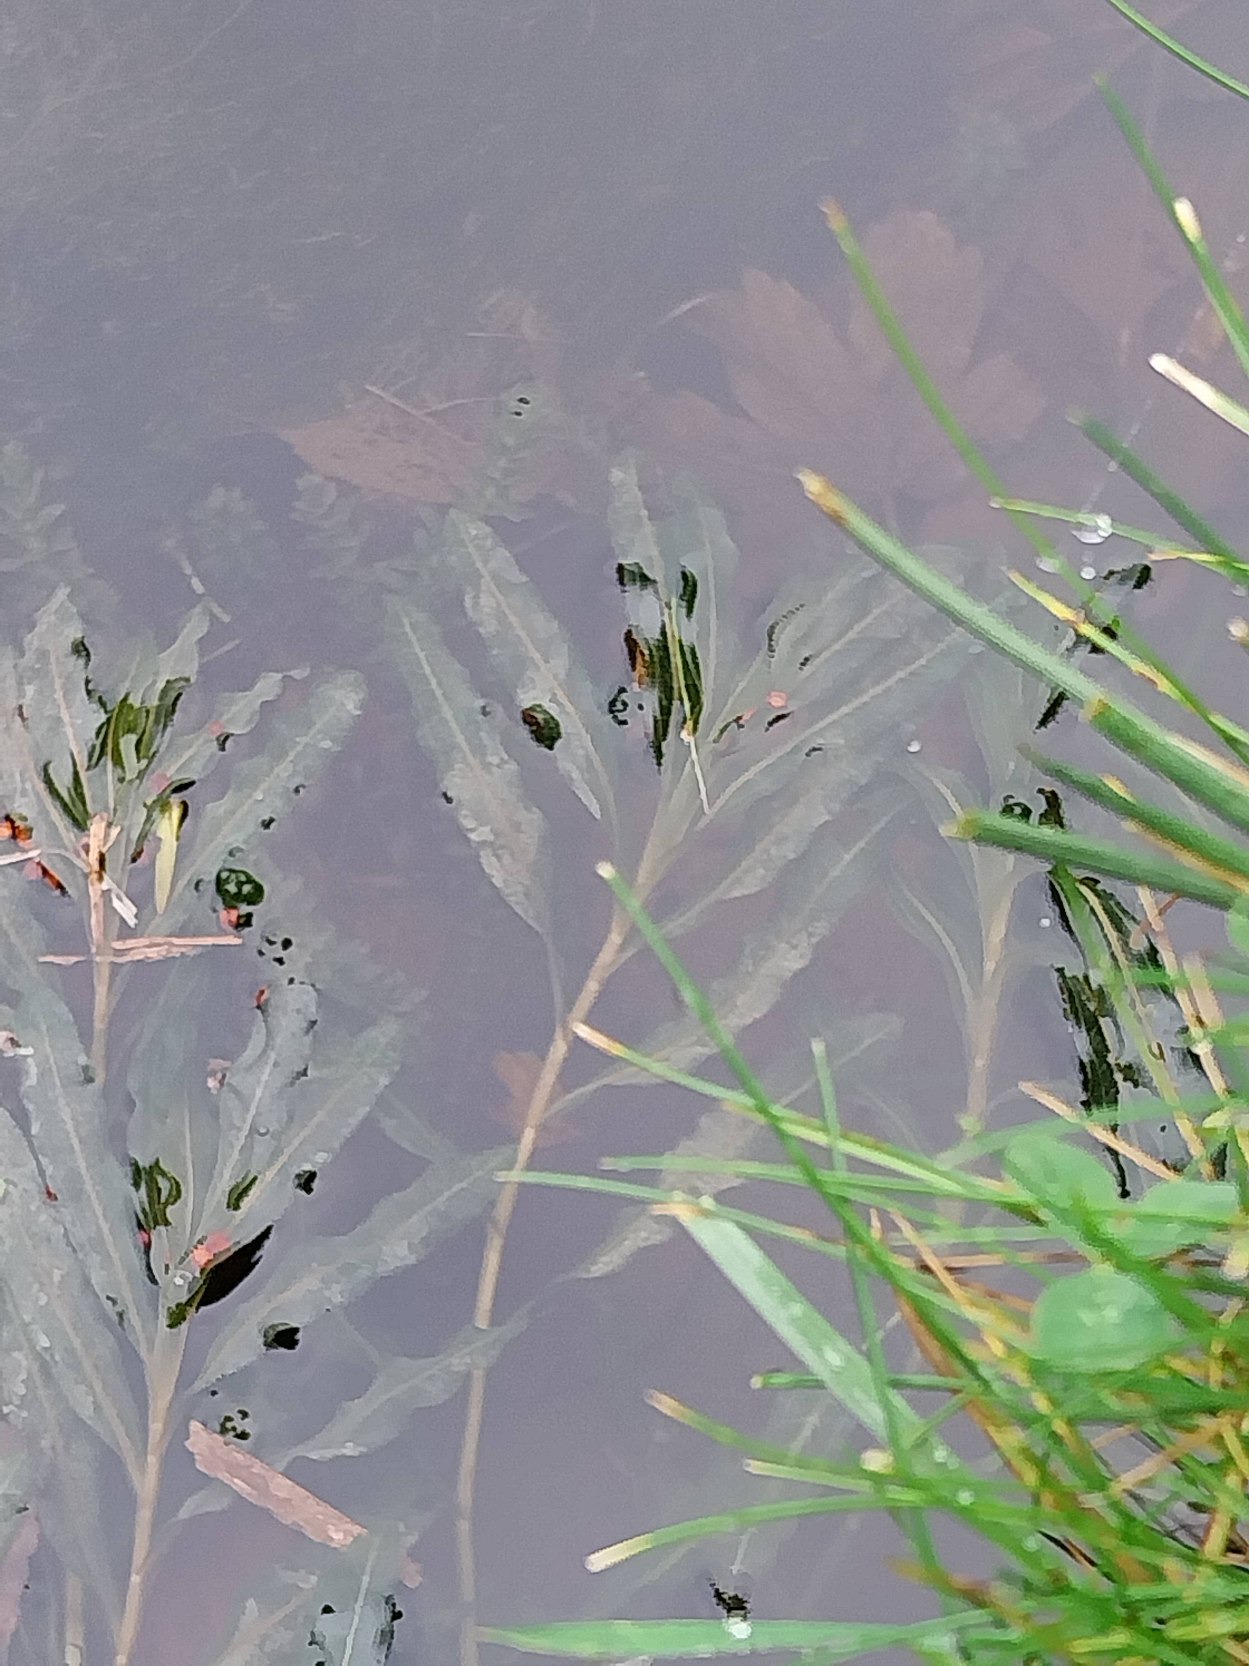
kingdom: Plantae
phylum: Tracheophyta
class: Liliopsida
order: Alismatales
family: Potamogetonaceae
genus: Potamogeton
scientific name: Potamogeton crispus
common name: Kruset vandaks
